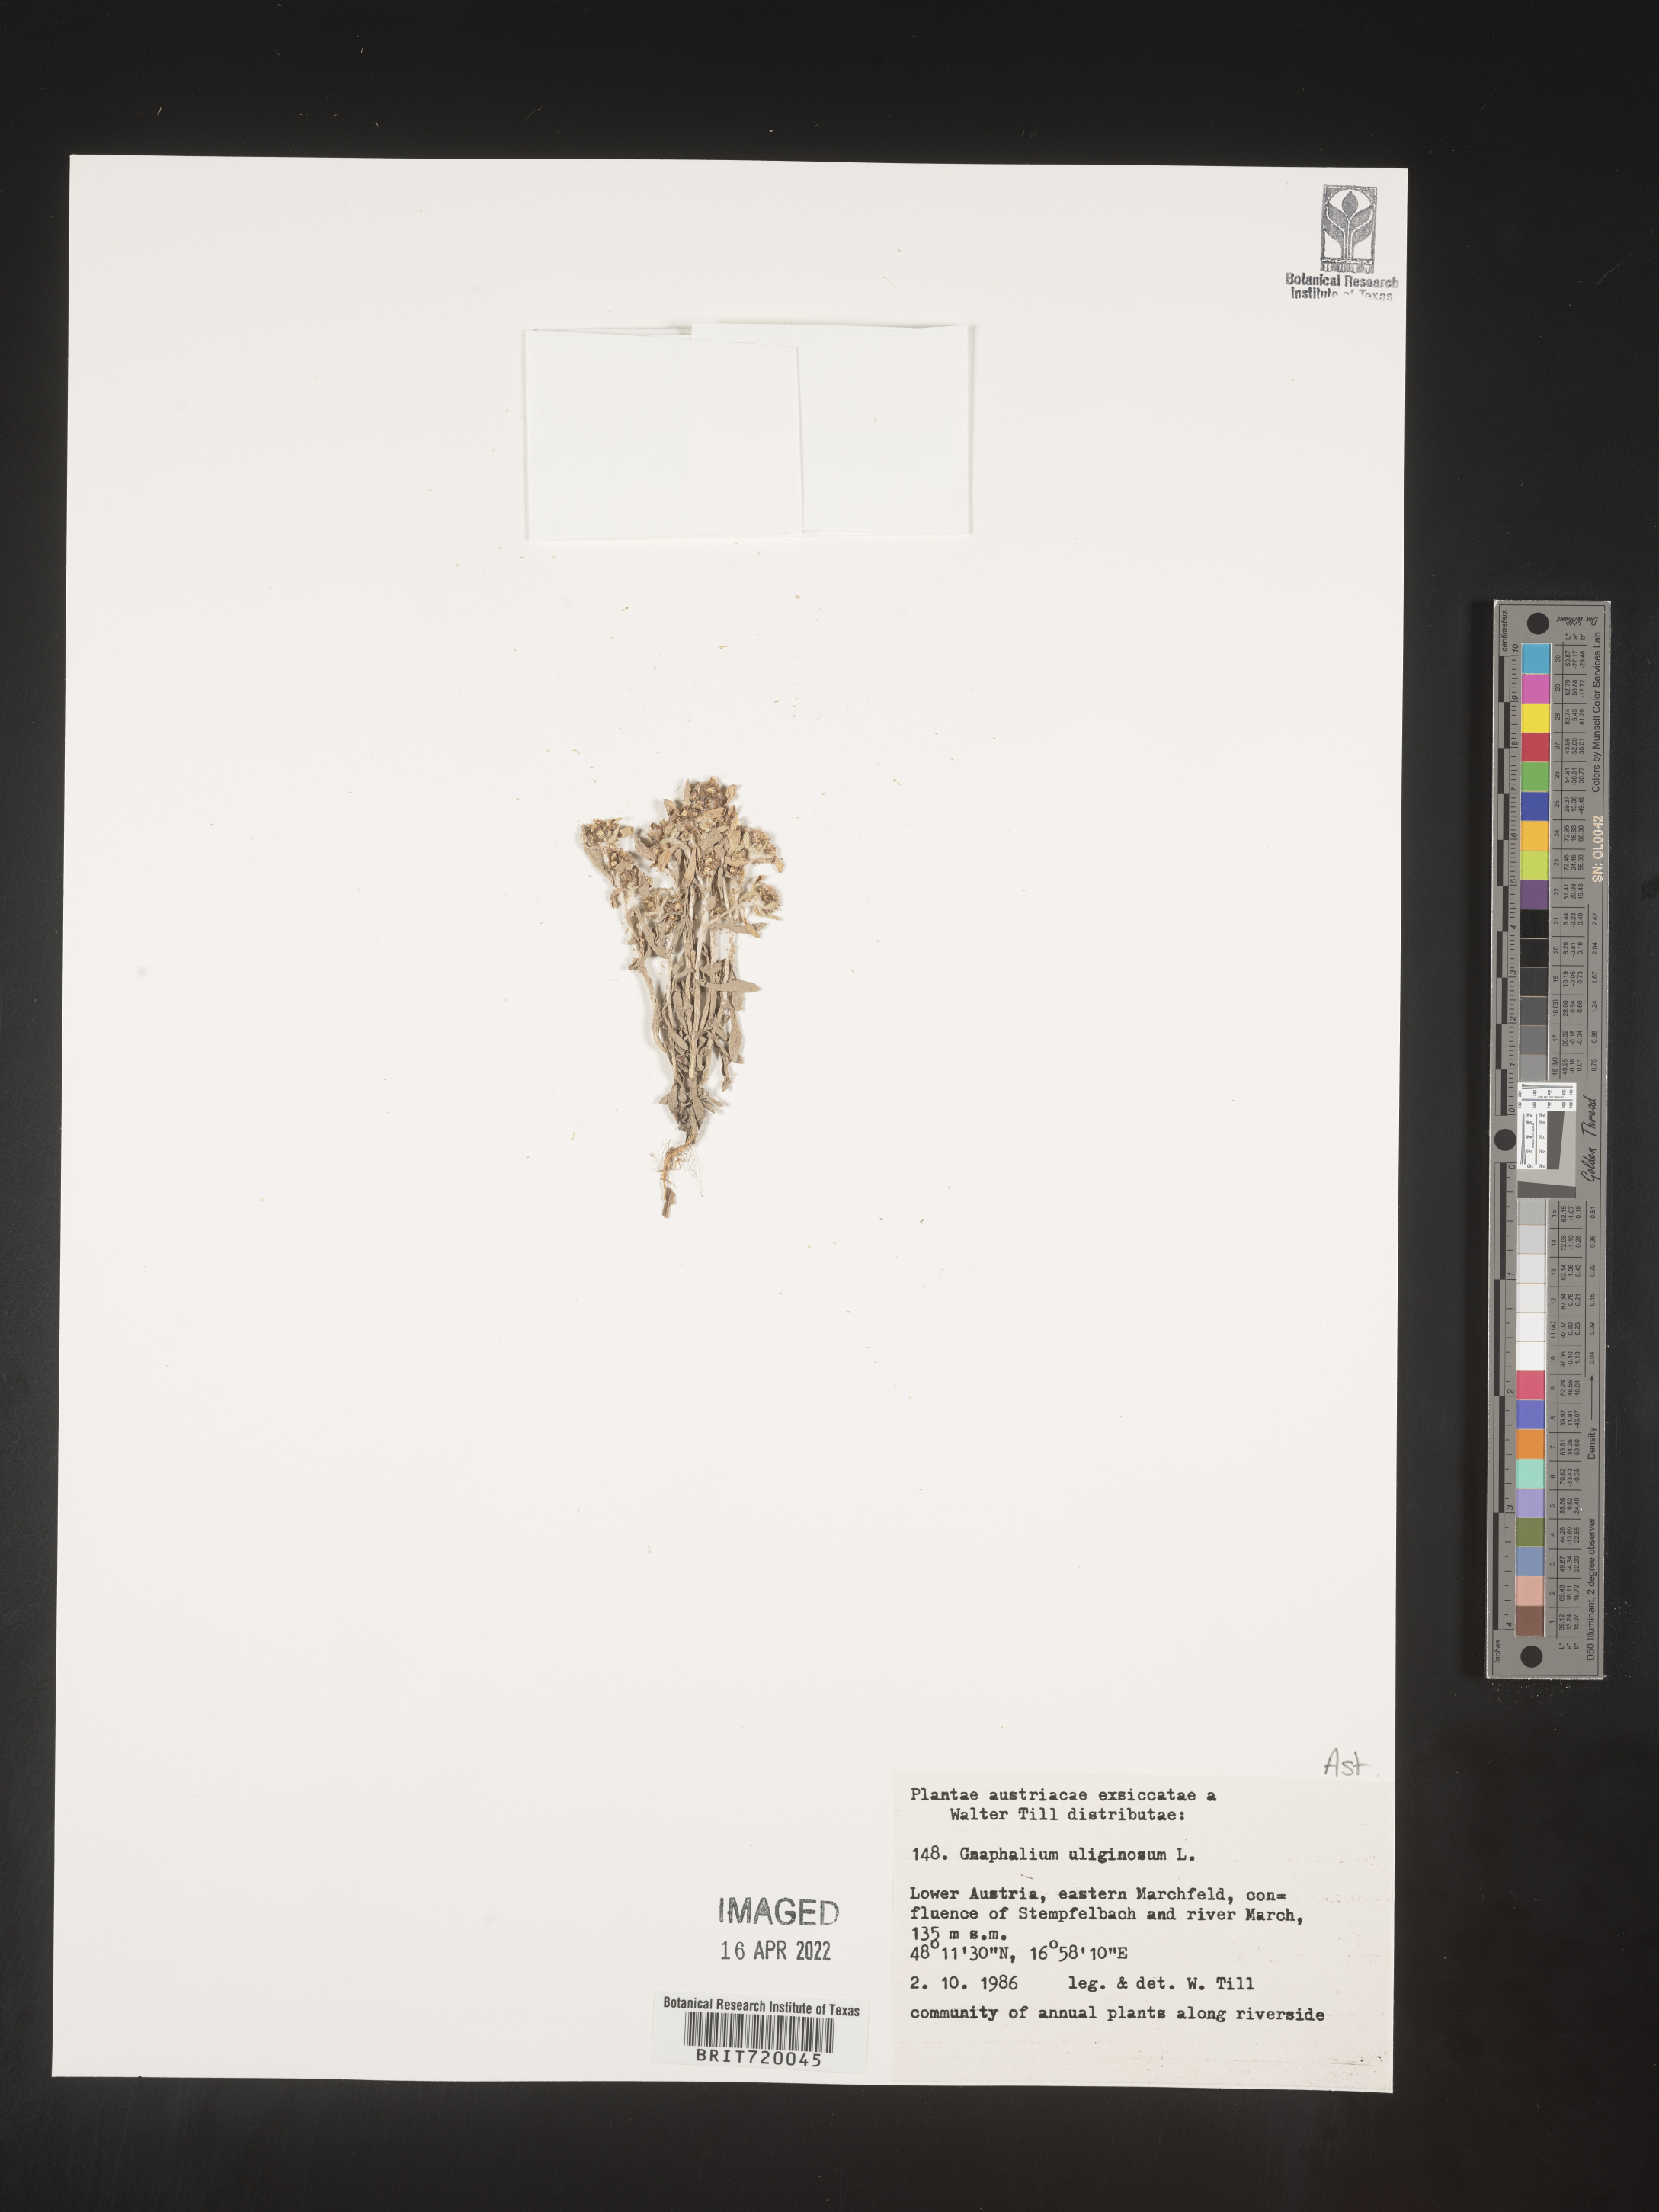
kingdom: Plantae
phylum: Tracheophyta
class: Magnoliopsida
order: Asterales
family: Asteraceae
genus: Gnaphalium
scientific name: Gnaphalium
